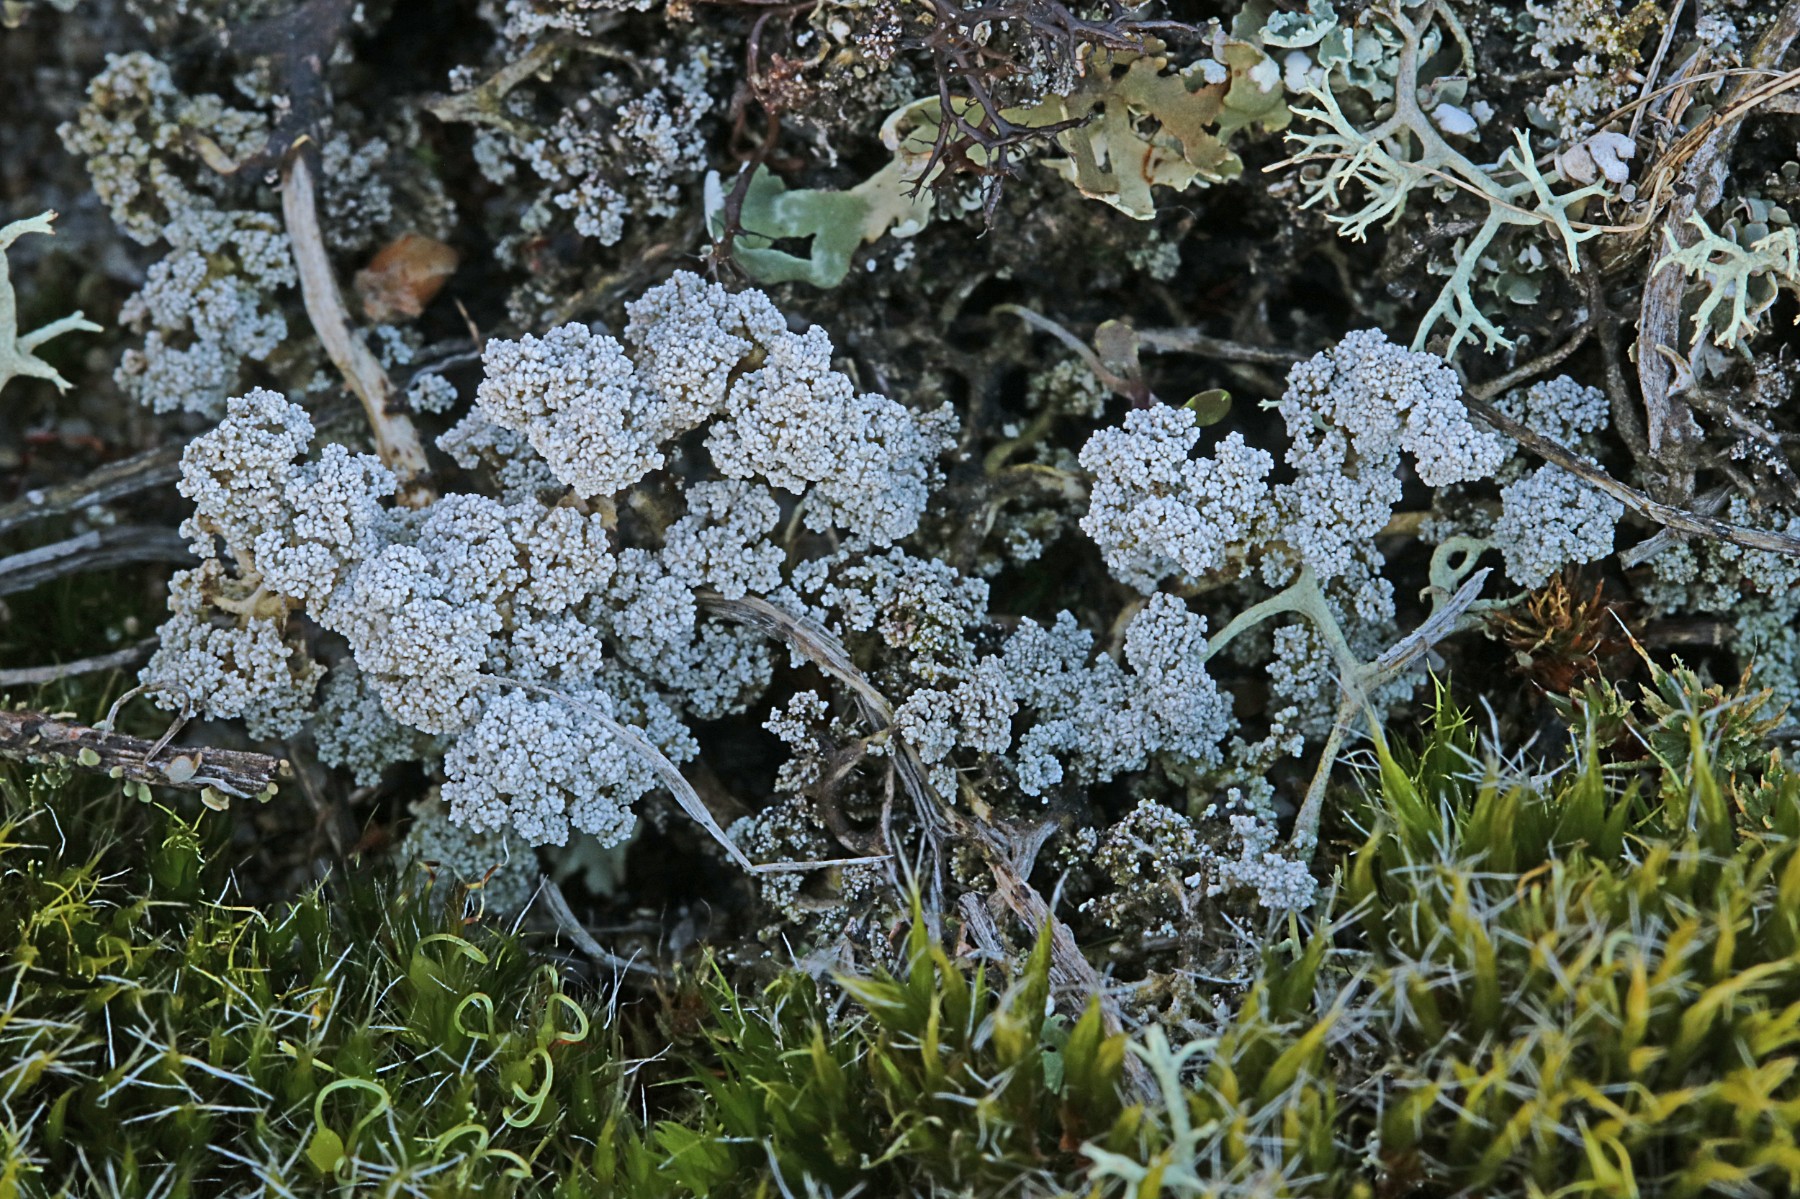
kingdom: Fungi
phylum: Ascomycota
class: Lecanoromycetes
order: Lecanorales
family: Stereocaulaceae
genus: Stereocaulon
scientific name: Stereocaulon saxatile
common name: klit-korallav
